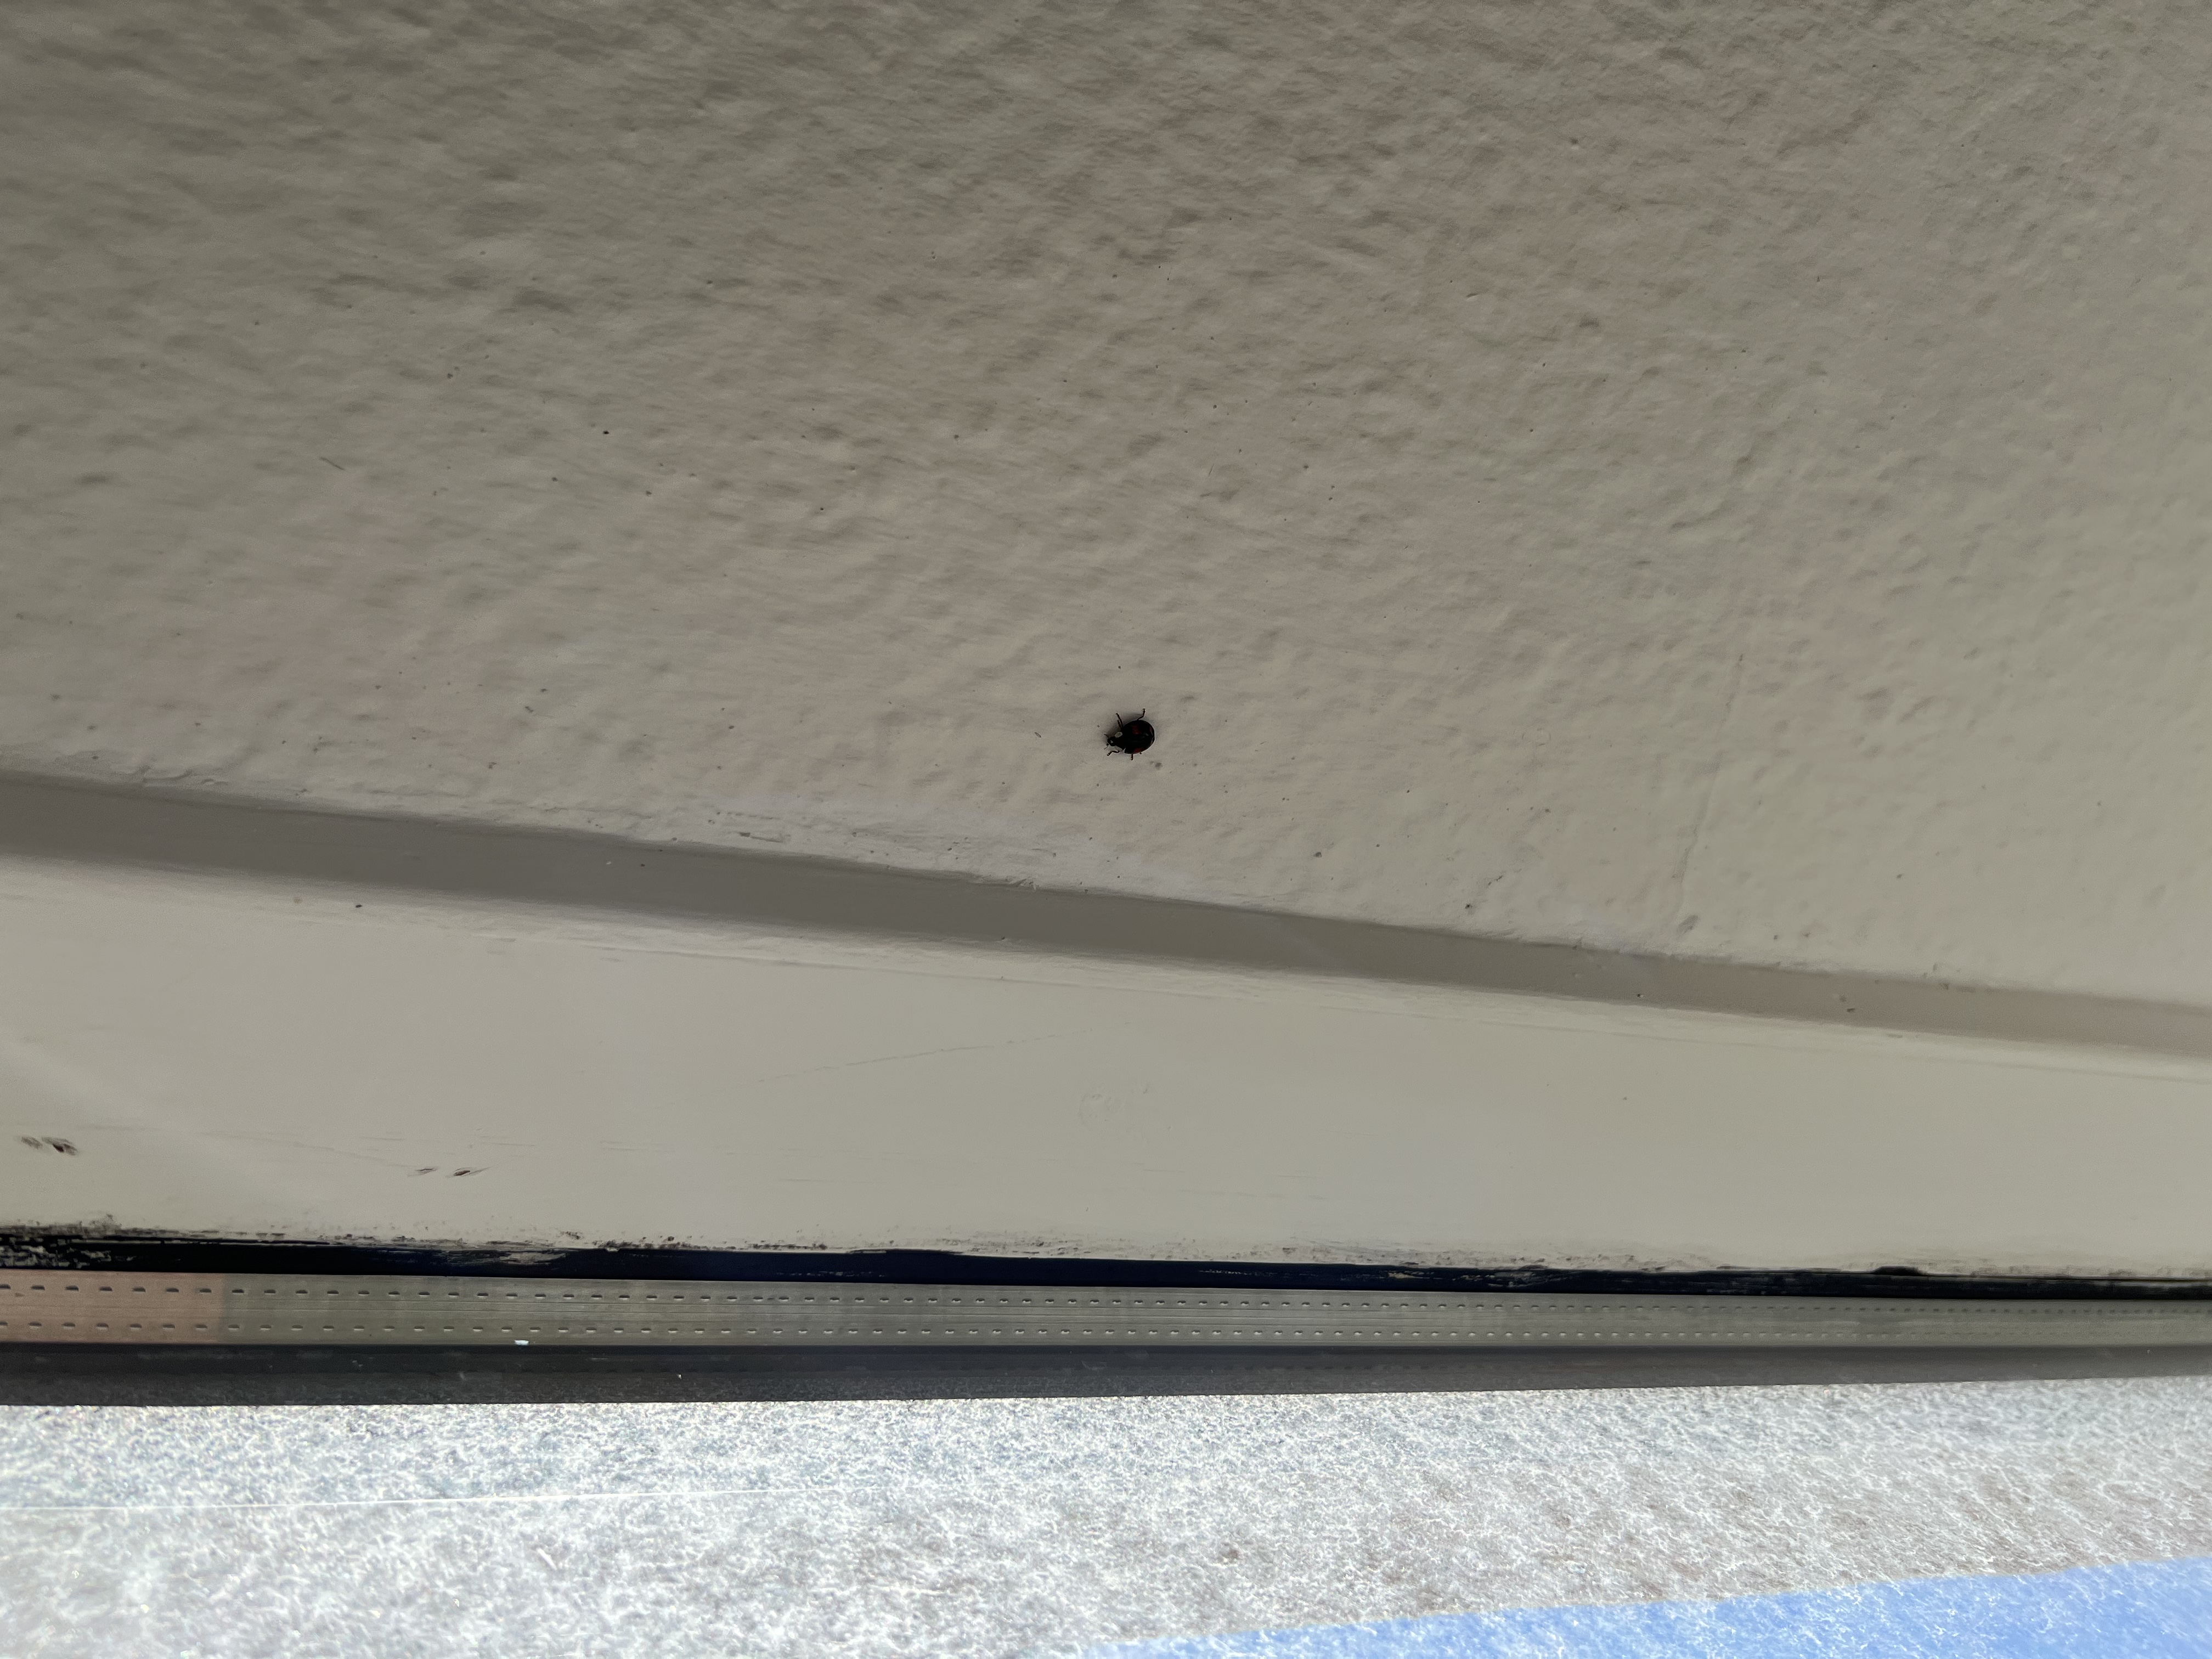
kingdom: Animalia
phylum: Arthropoda
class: Insecta
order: Coleoptera
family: Coccinellidae
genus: Harmonia
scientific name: Harmonia axyridis
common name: Harlekinmariehøne
